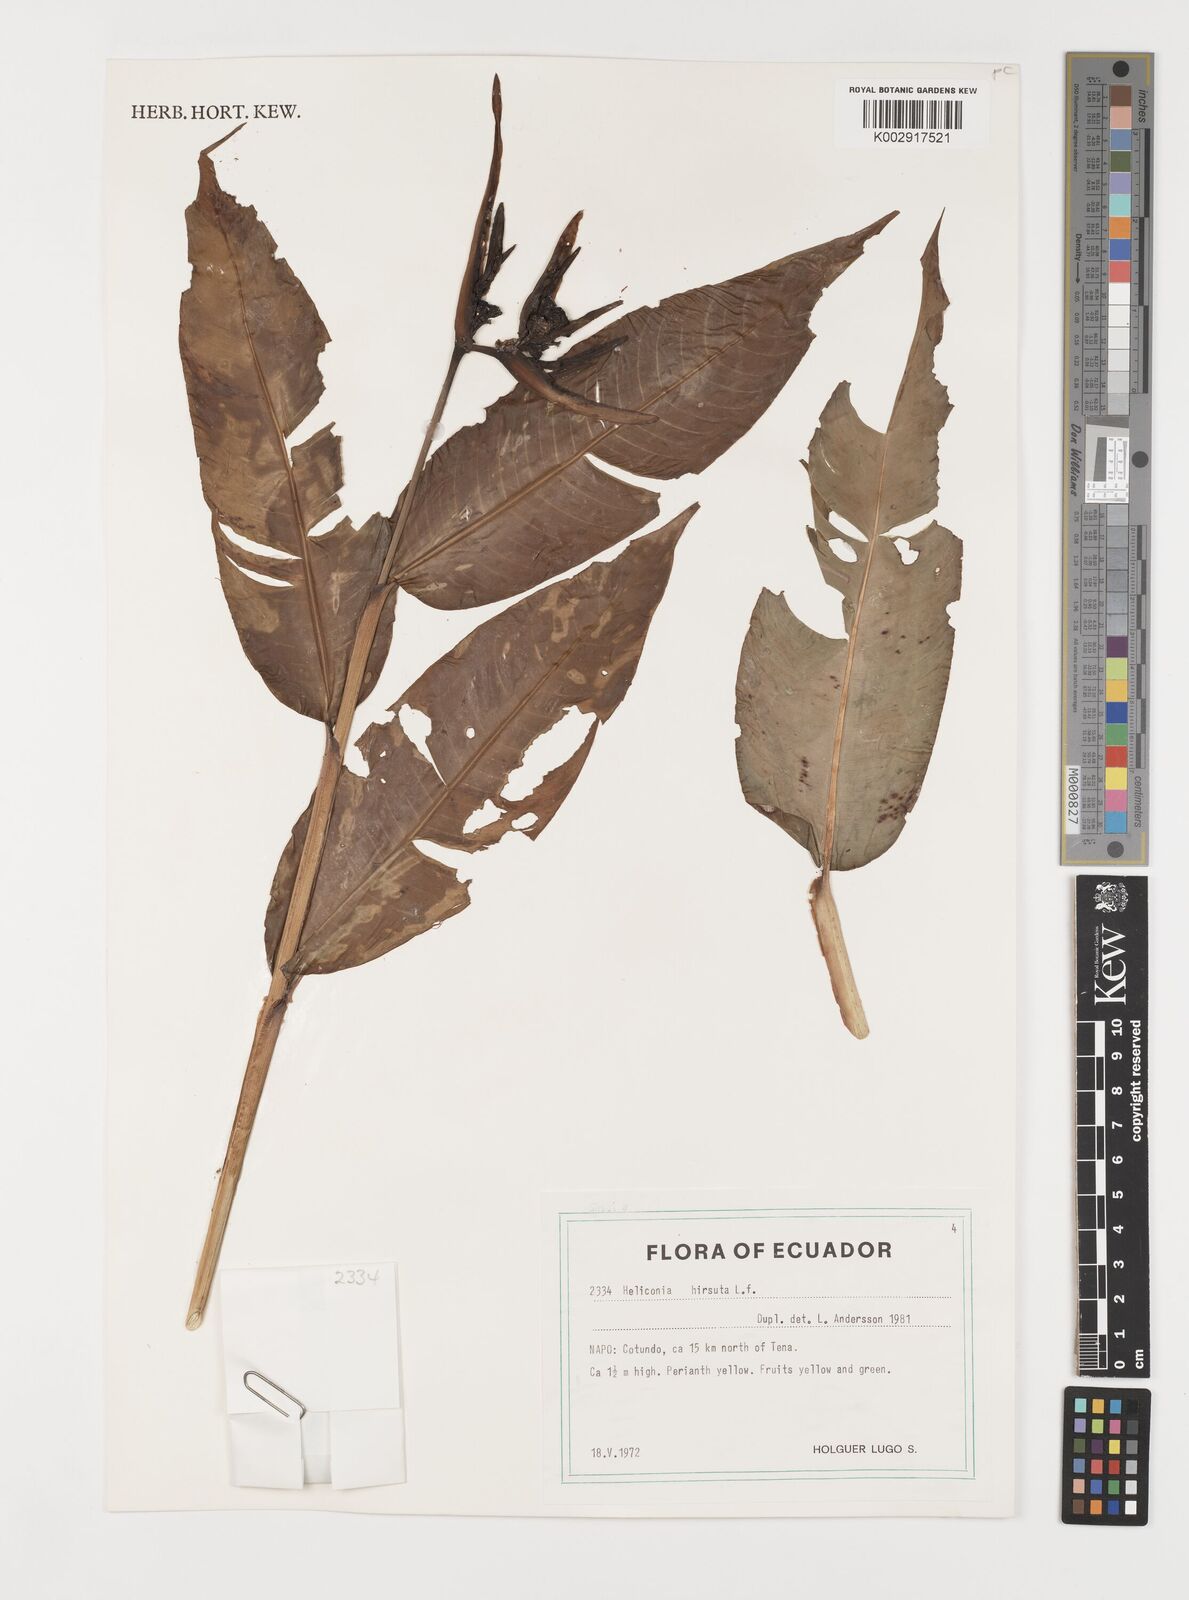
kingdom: Plantae
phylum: Tracheophyta
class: Liliopsida
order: Zingiberales
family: Heliconiaceae
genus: Heliconia
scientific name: Heliconia hirsuta
